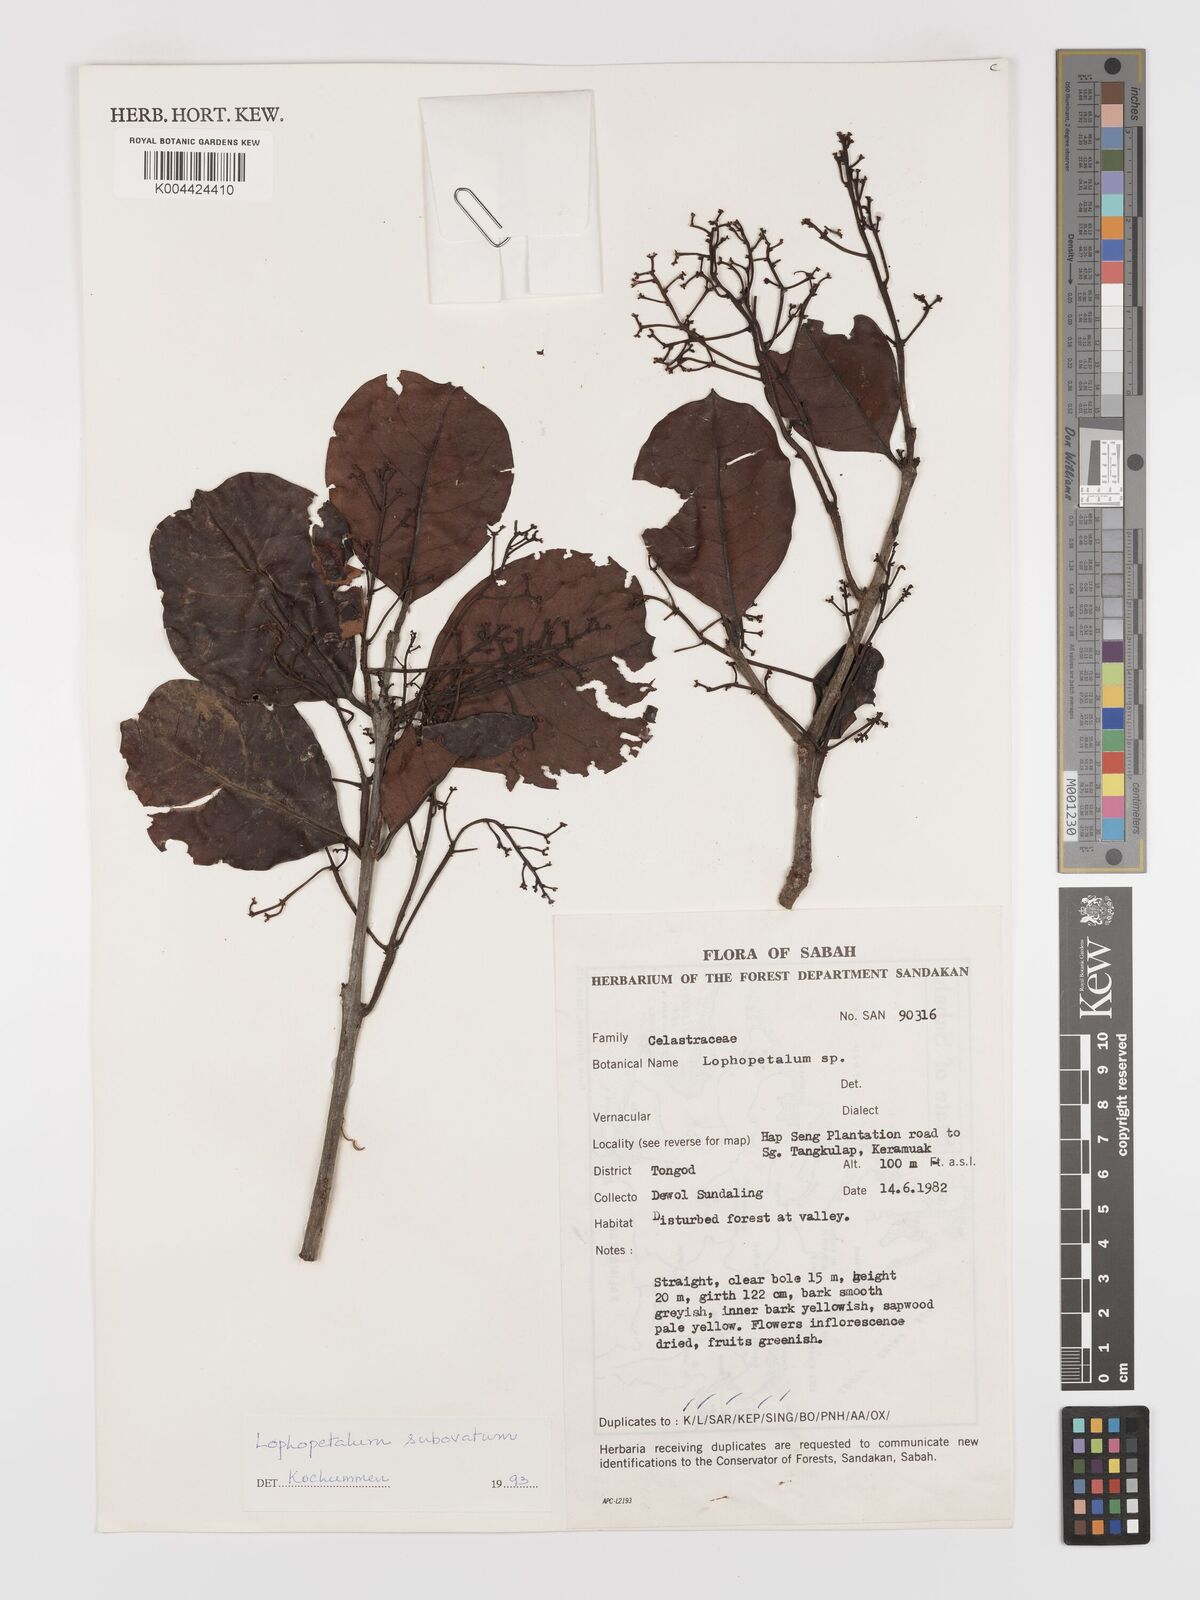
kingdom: Plantae
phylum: Tracheophyta
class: Magnoliopsida
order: Celastrales
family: Celastraceae
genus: Lophopetalum
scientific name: Lophopetalum
